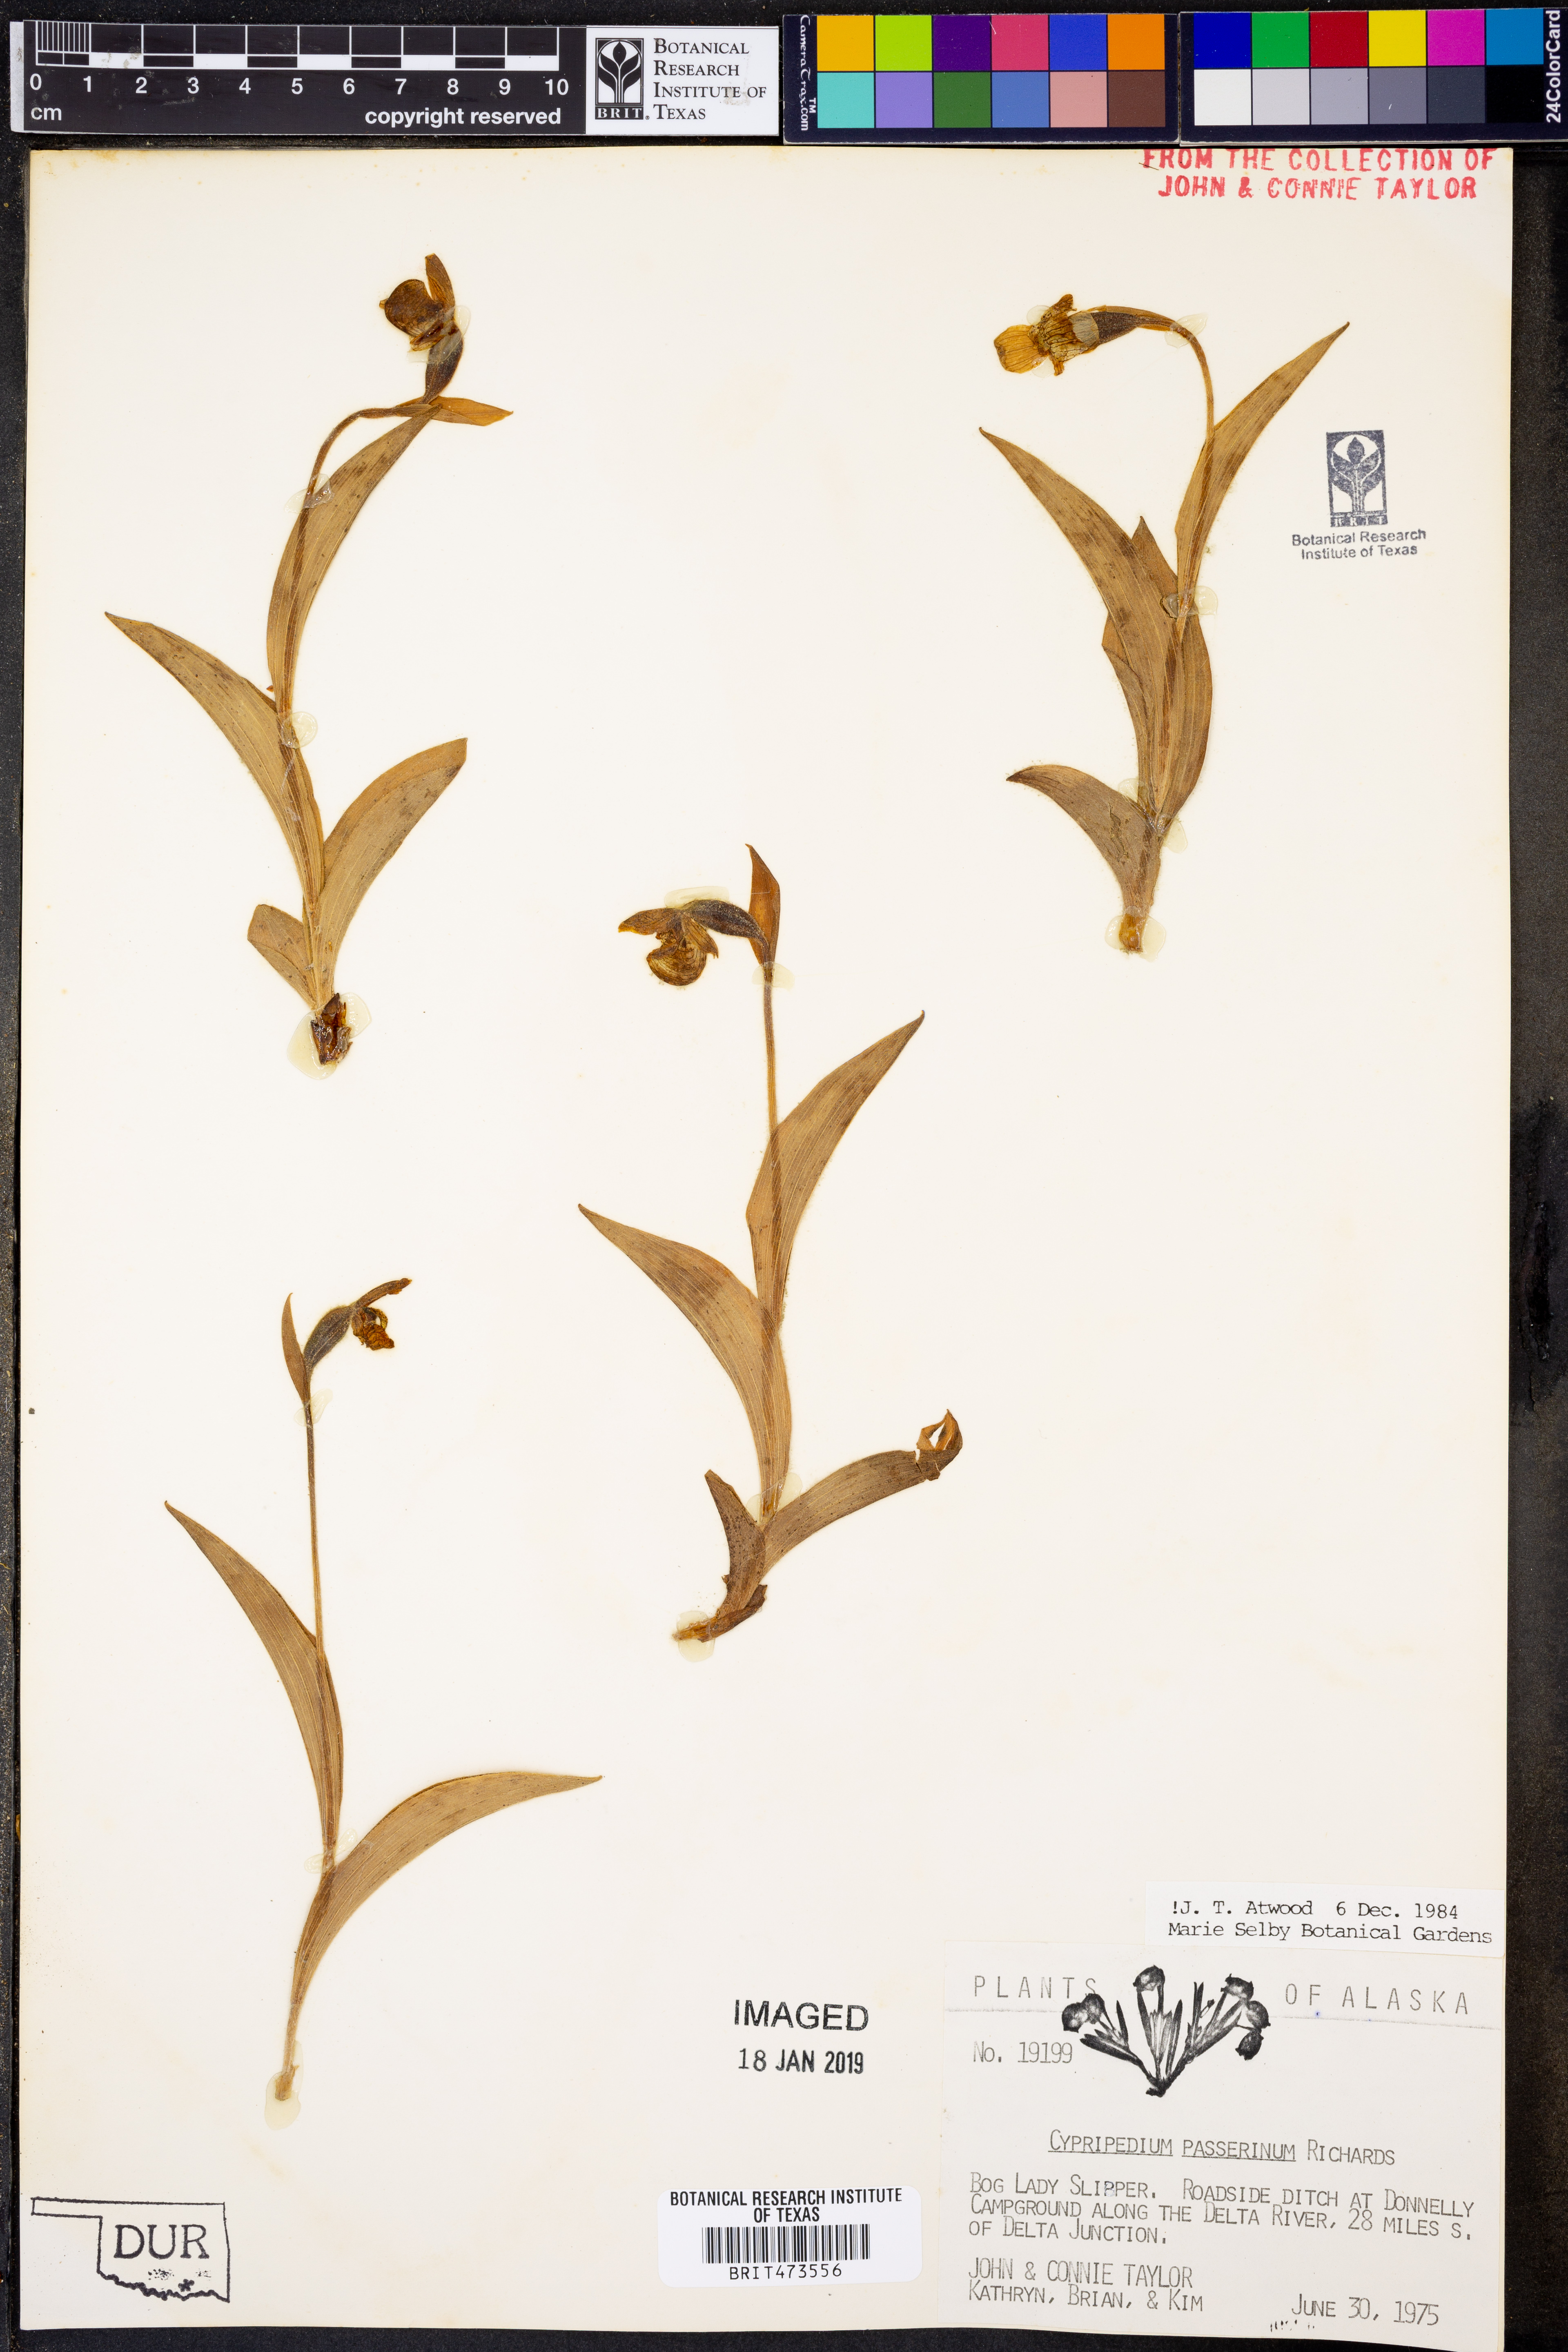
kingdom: Plantae
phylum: Tracheophyta
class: Liliopsida
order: Asparagales
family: Orchidaceae
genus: Cypripedium
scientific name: Cypripedium passerinum
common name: Sparrow's-egg lady's-slipper
